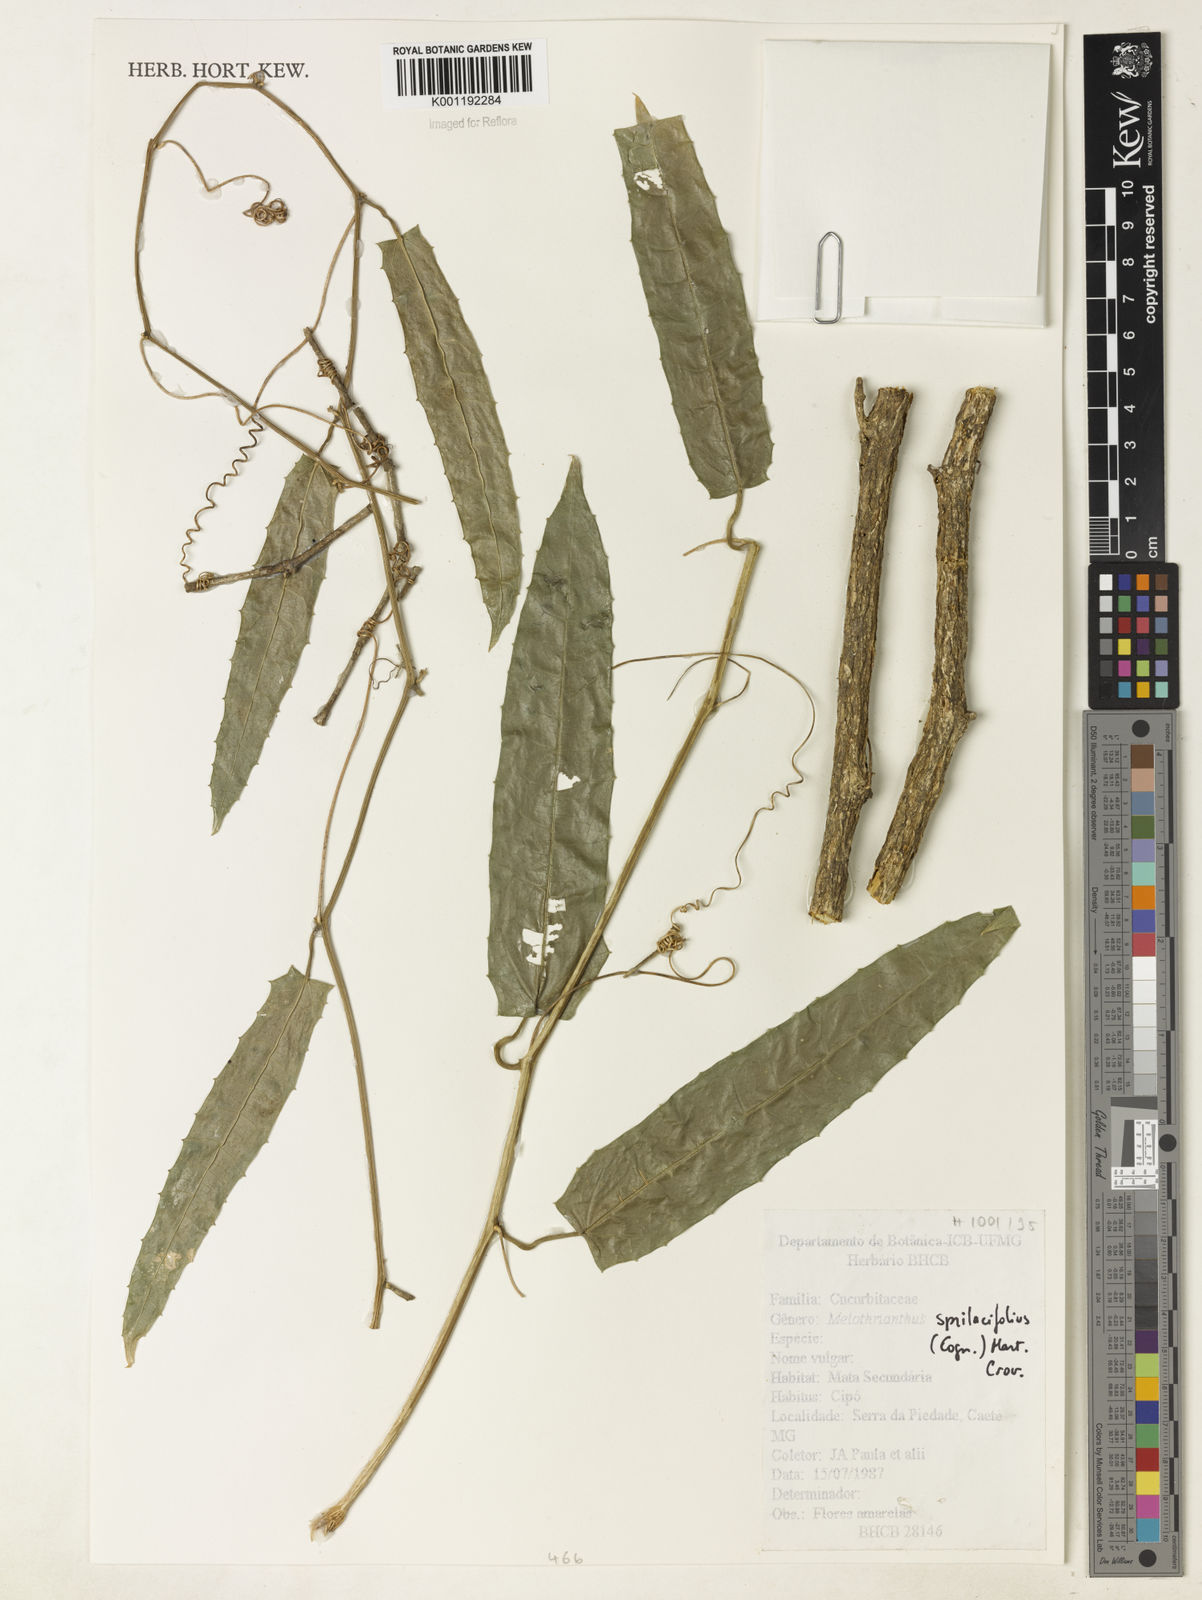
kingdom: Plantae
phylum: Tracheophyta
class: Magnoliopsida
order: Cucurbitales
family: Cucurbitaceae
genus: Apodanthera
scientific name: Apodanthera smilacifolia
